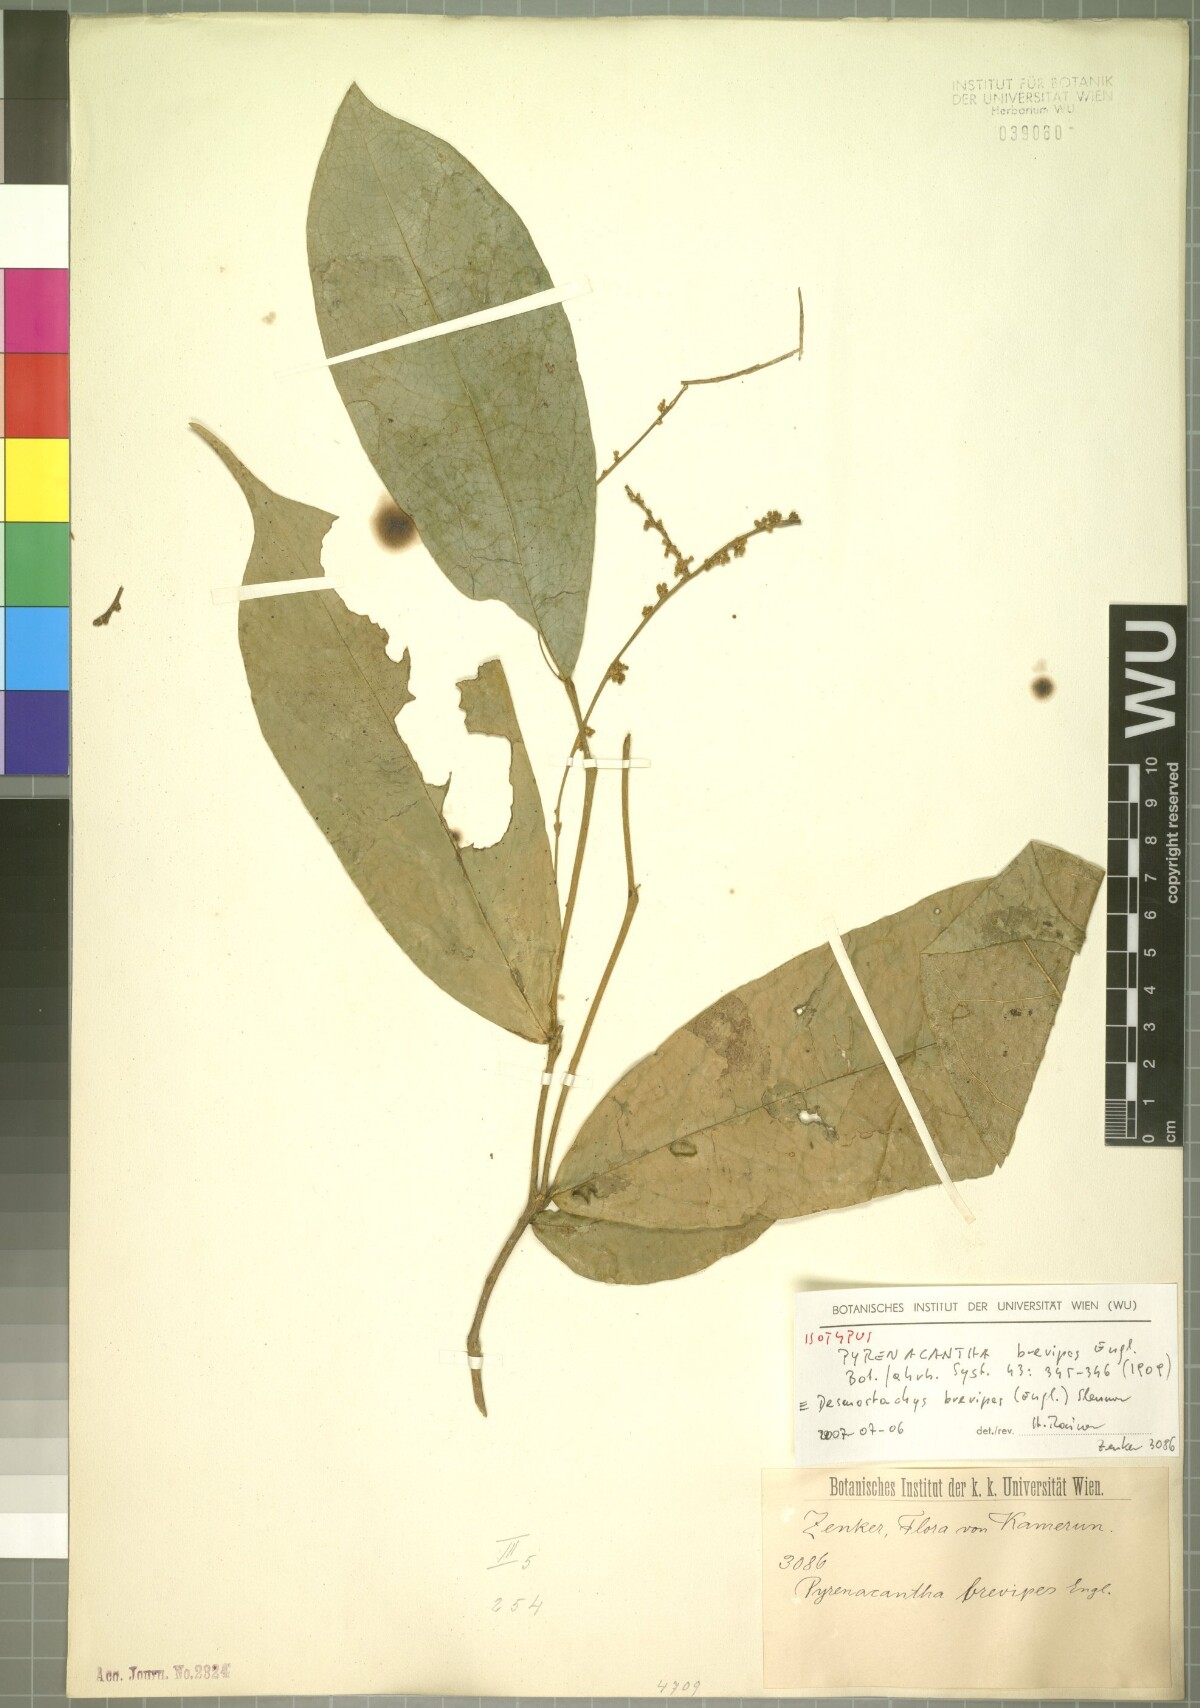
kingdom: Plantae
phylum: Tracheophyta
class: Magnoliopsida
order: Icacinales
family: Icacinaceae
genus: Vadensea
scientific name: Vadensea oblongifolia
